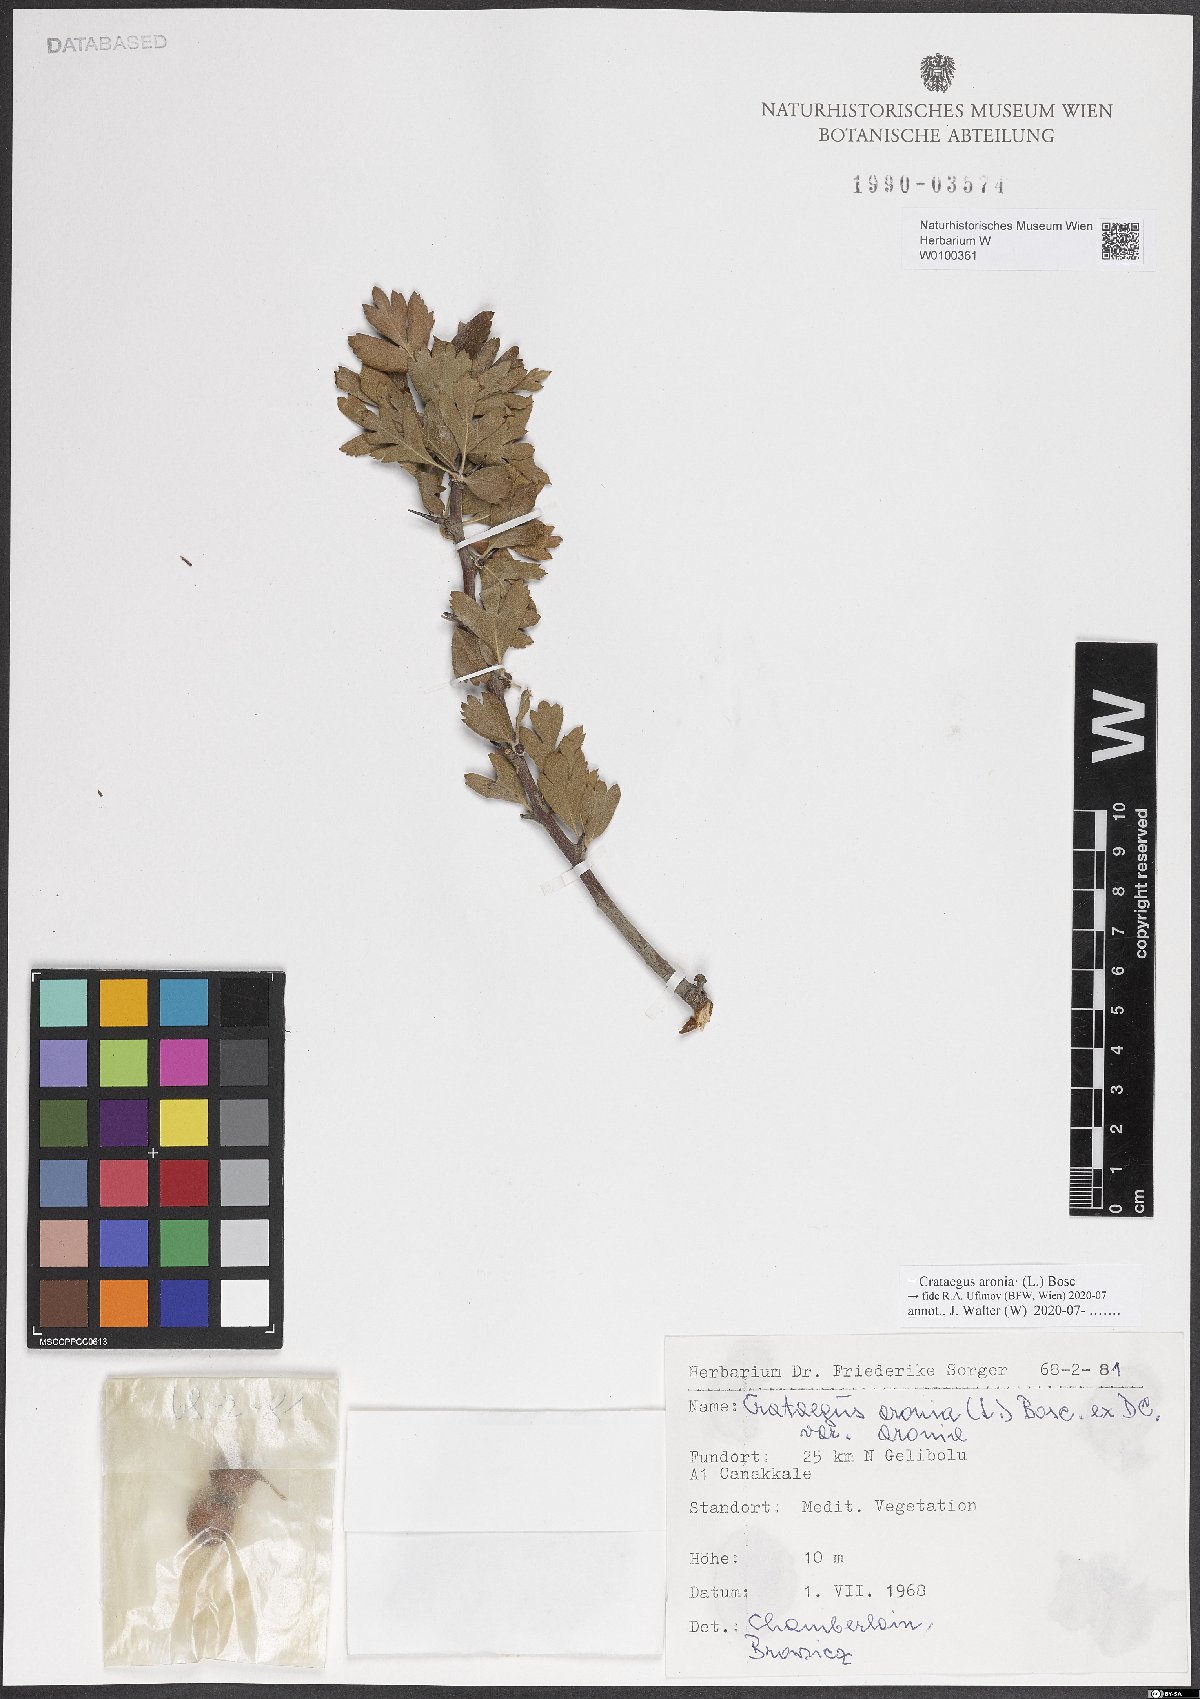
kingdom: Plantae
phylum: Tracheophyta
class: Magnoliopsida
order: Rosales
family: Rosaceae
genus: Crataegus
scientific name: Crataegus azarolus
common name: Azarole
